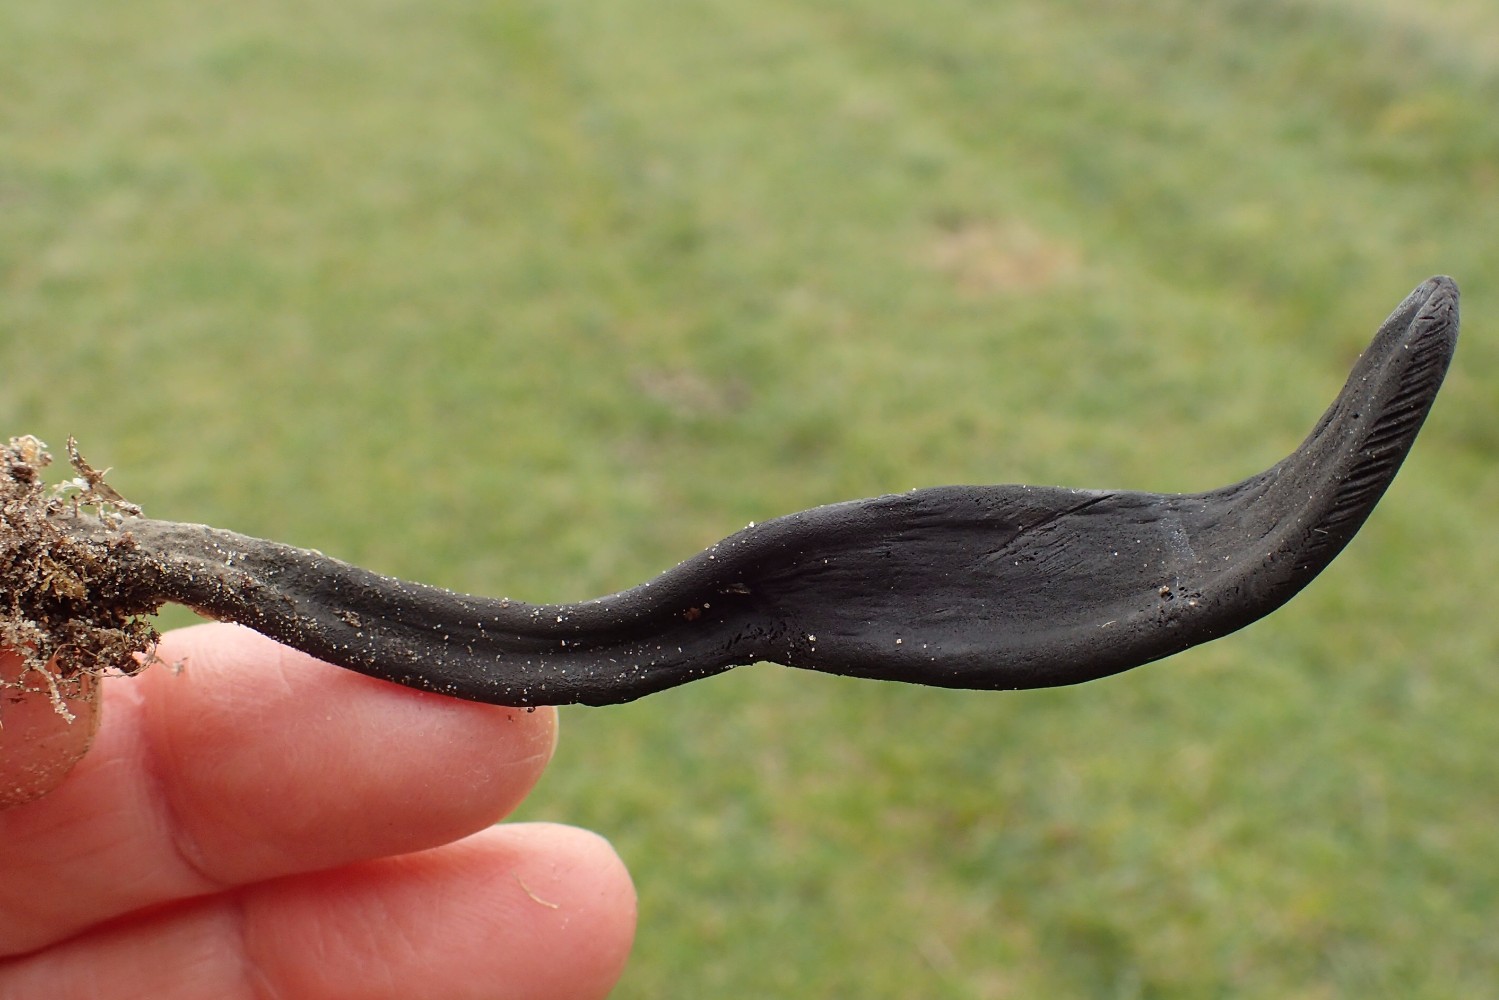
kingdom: Fungi
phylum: Ascomycota
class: Geoglossomycetes
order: Geoglossales
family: Geoglossaceae
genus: Geoglossum
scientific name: Geoglossum cookeianum
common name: bred jordtunge
